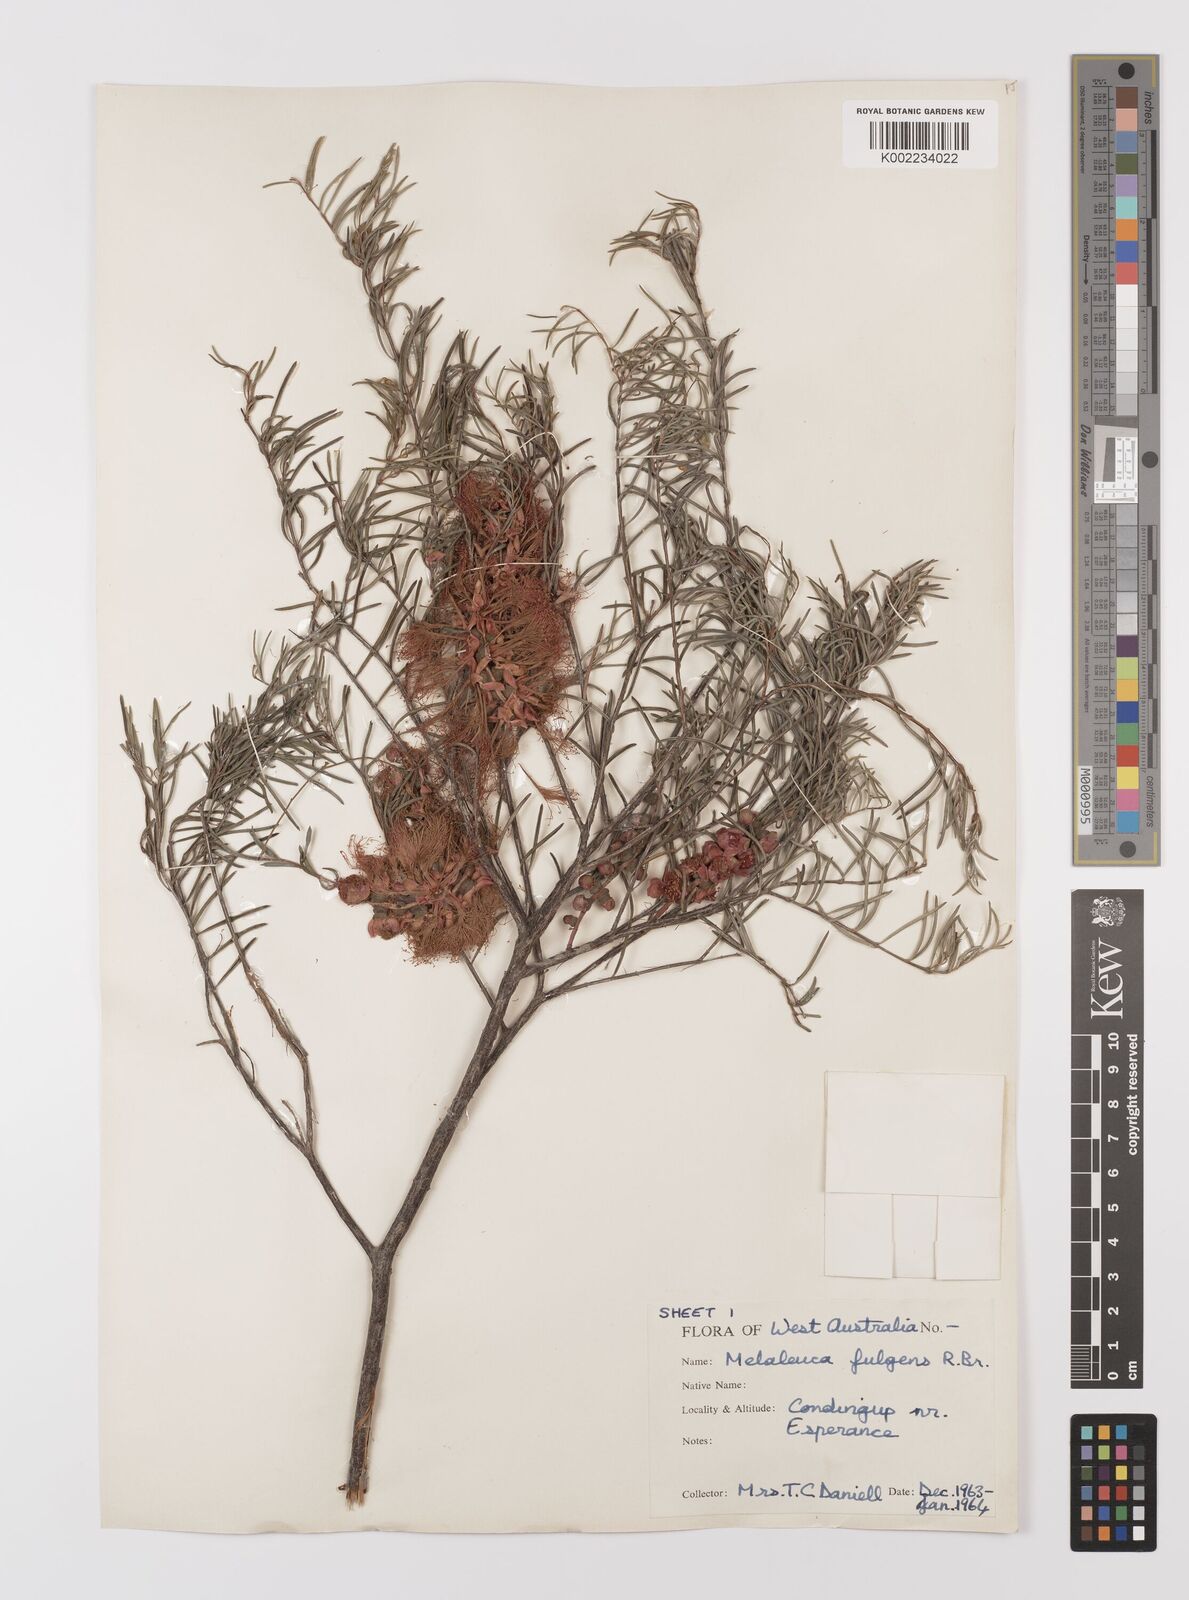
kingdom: Plantae
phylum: Tracheophyta
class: Magnoliopsida
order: Myrtales
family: Myrtaceae
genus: Melaleuca
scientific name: Melaleuca fulgens
